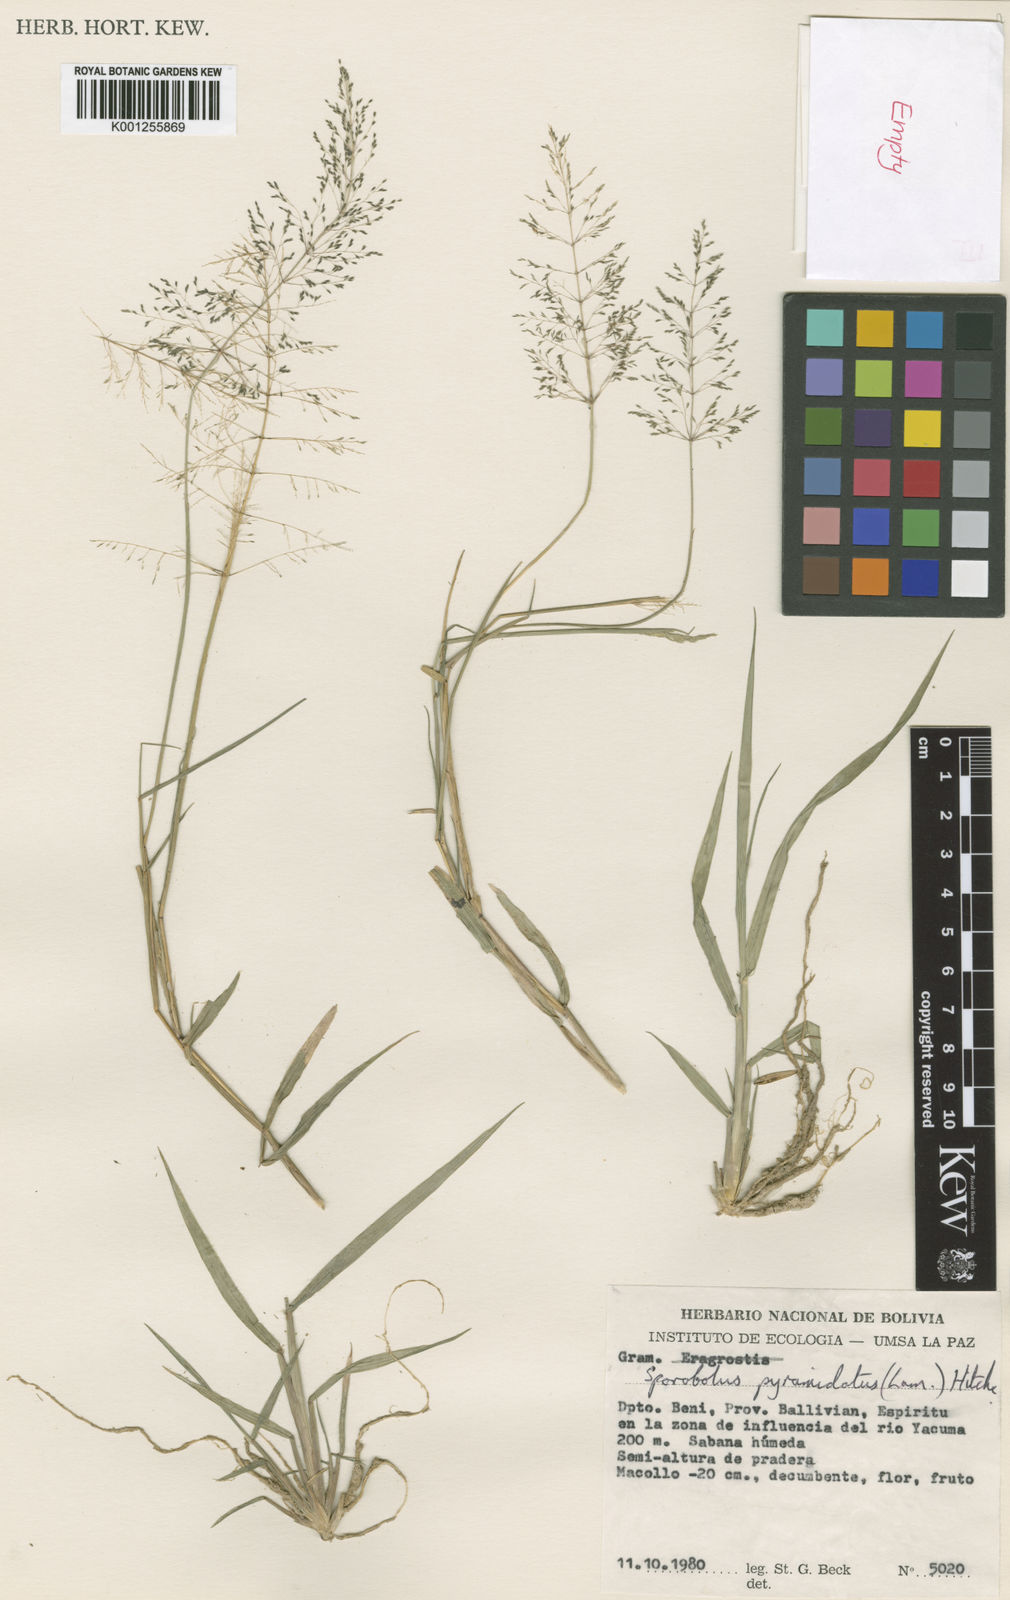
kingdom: Plantae
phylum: Tracheophyta
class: Liliopsida
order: Poales
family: Poaceae
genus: Sporobolus
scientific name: Sporobolus pyramidatus
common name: Whorled dropseed
